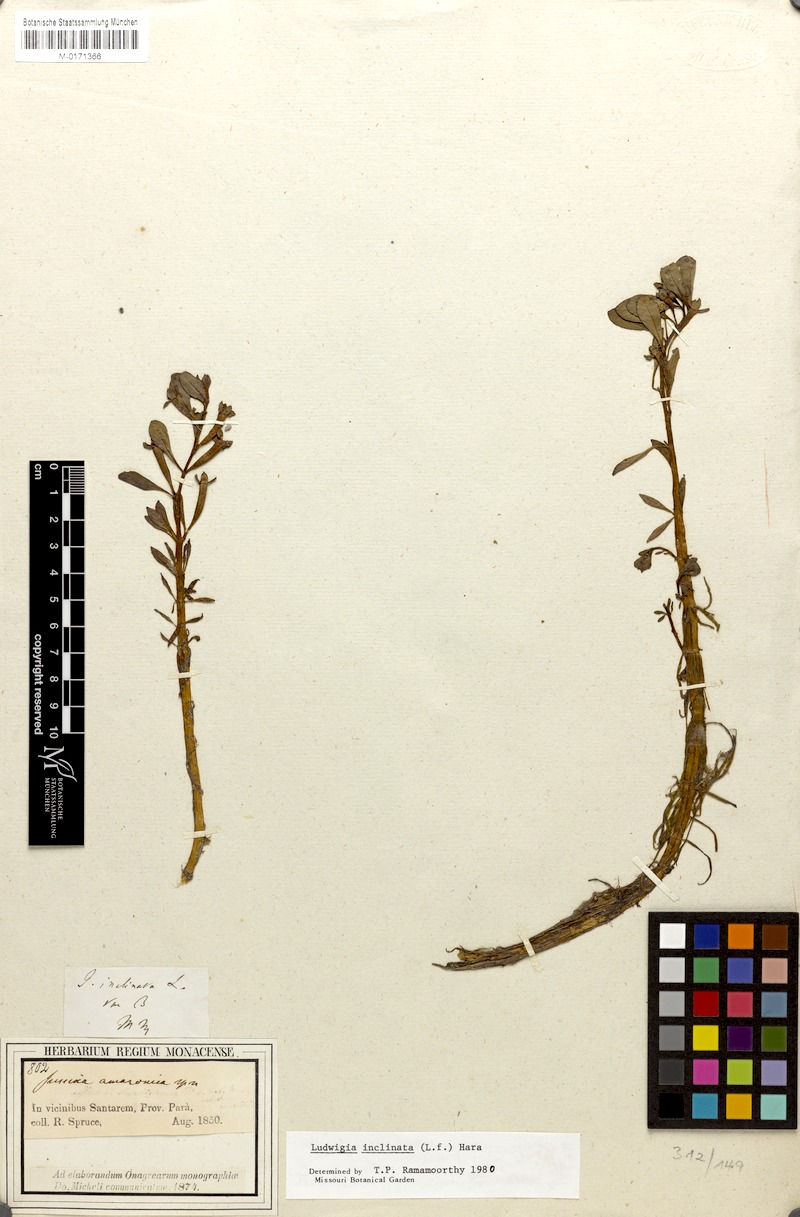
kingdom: Plantae
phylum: Tracheophyta
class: Magnoliopsida
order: Myrtales
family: Onagraceae
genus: Ludwigia
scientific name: Ludwigia inclinata
